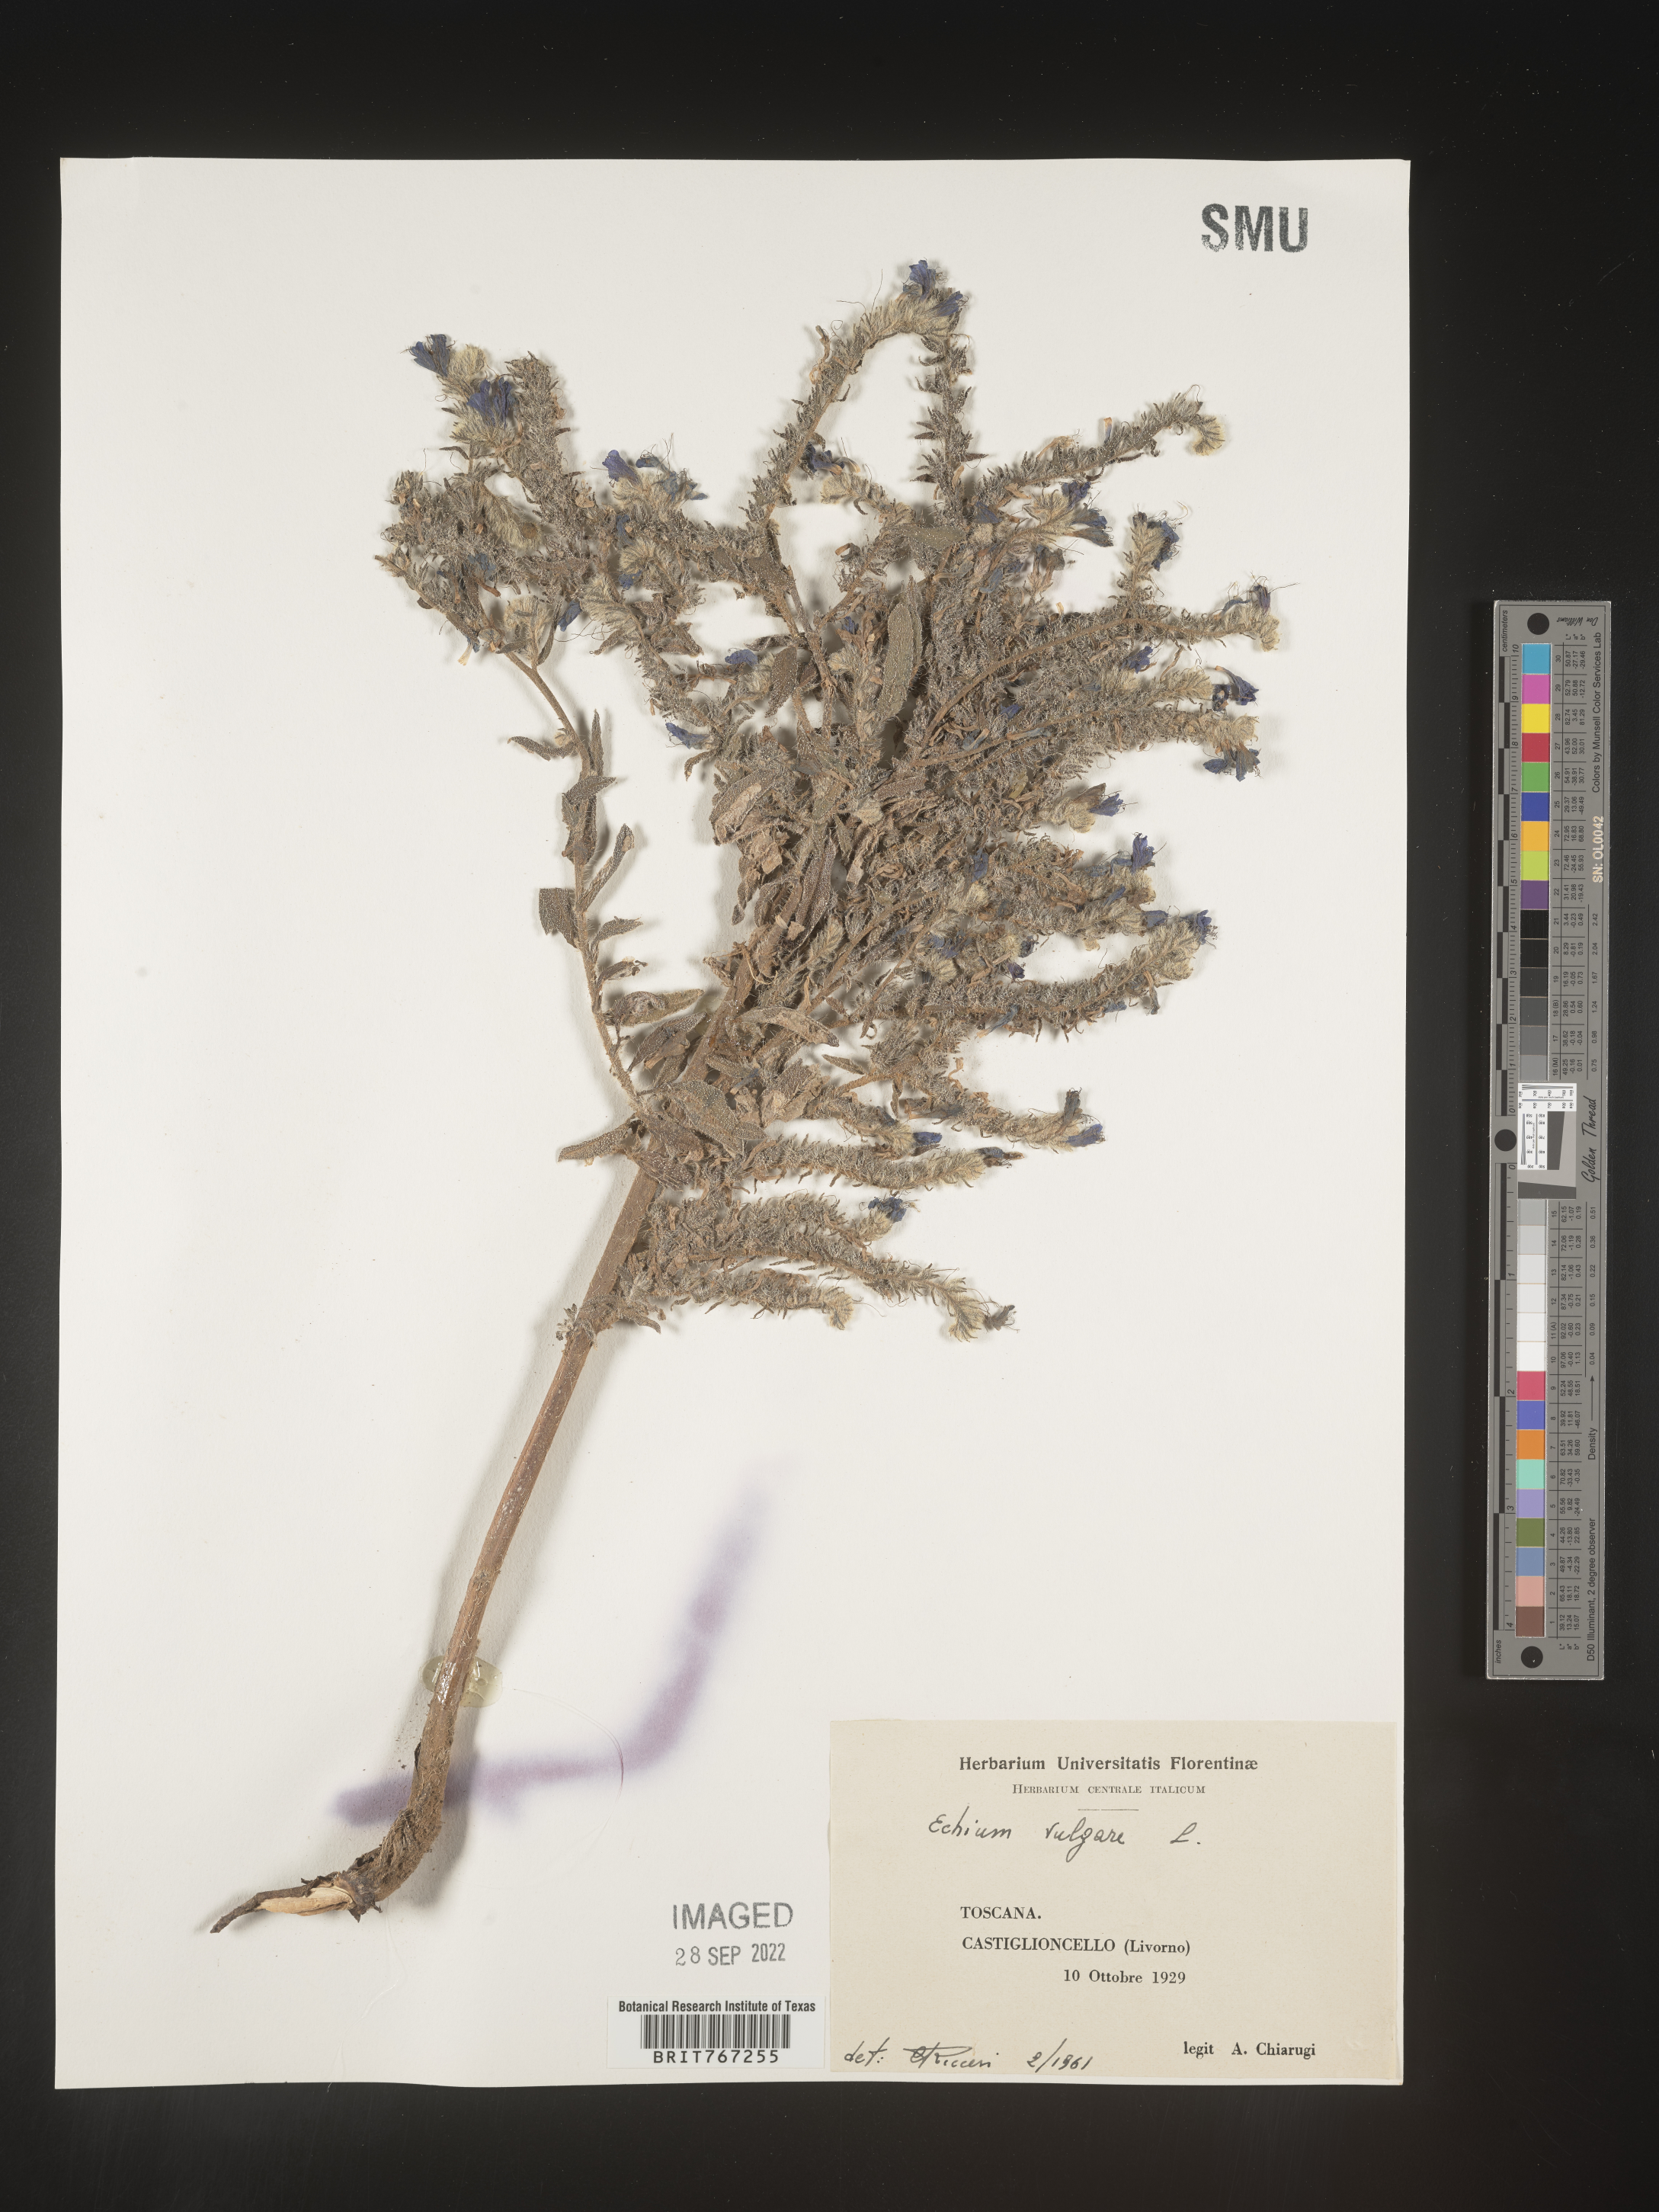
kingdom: Plantae
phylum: Tracheophyta
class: Magnoliopsida
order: Boraginales
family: Boraginaceae
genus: Echium
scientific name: Echium
